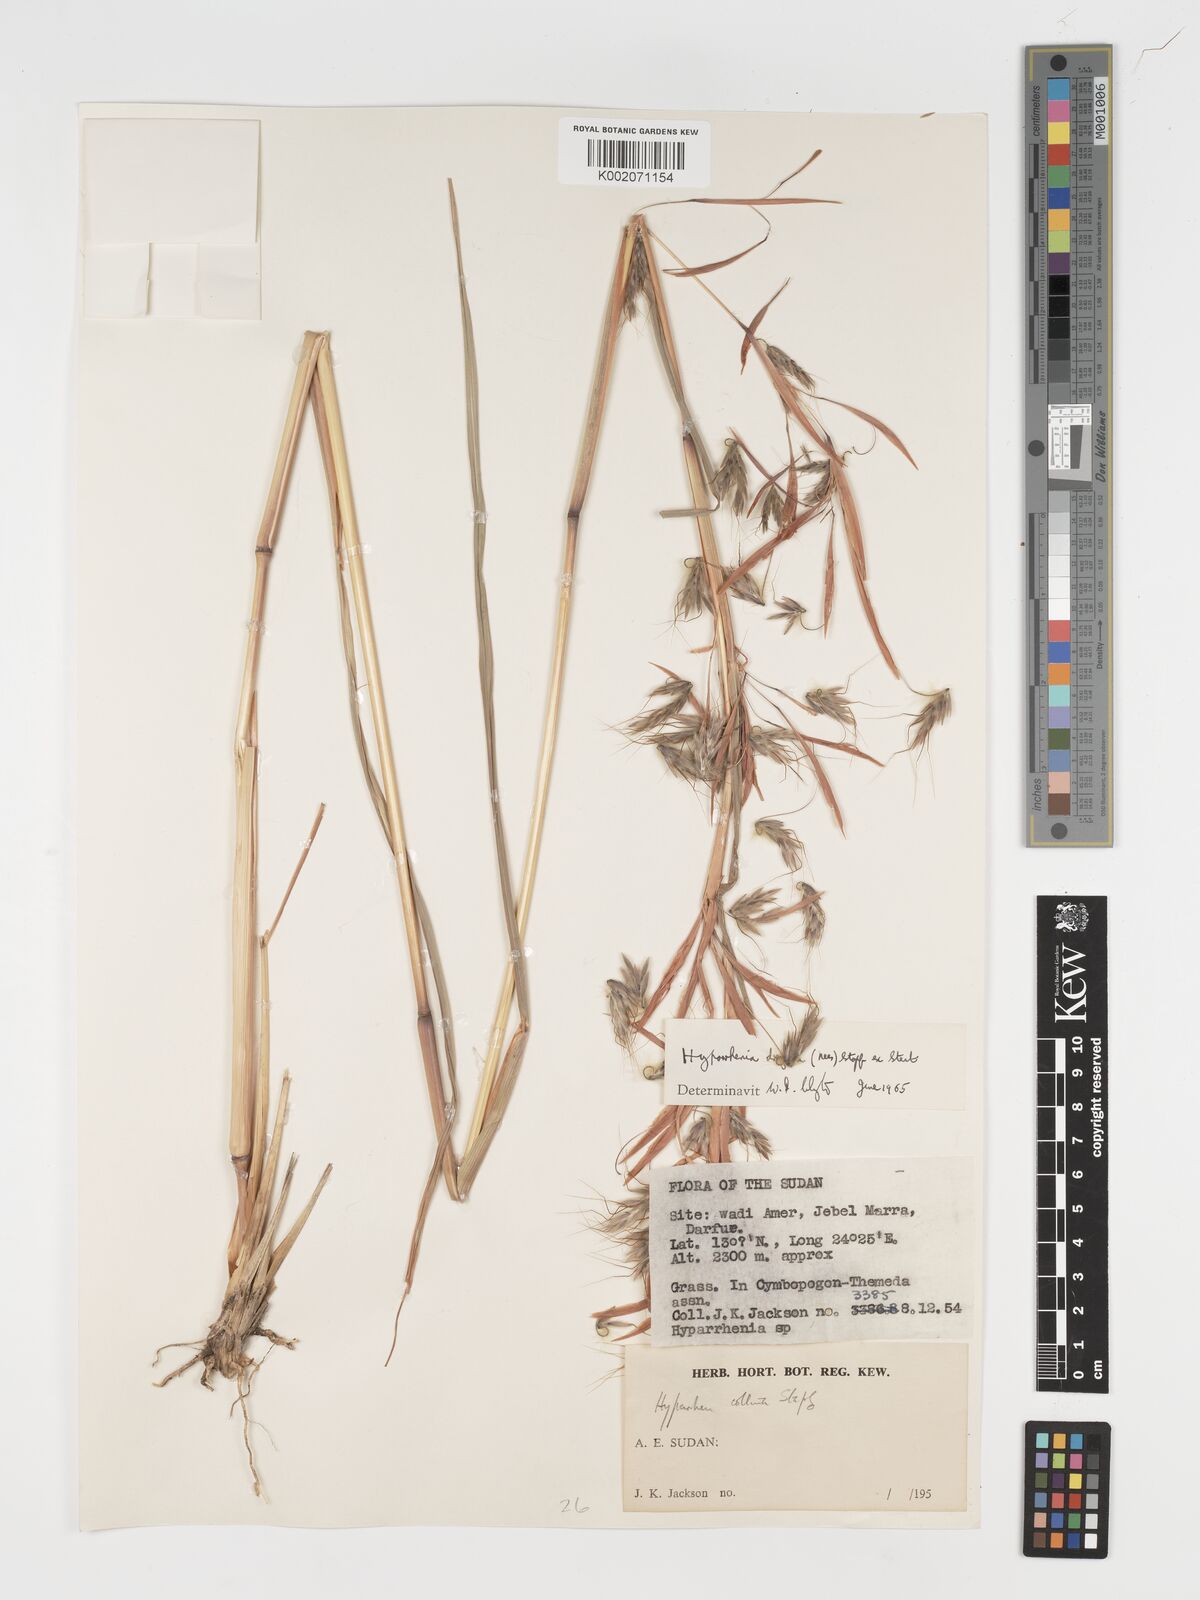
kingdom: Plantae
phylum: Tracheophyta
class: Liliopsida
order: Poales
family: Poaceae
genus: Hyparrhenia
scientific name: Hyparrhenia dregeana
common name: Silky thatching grass
